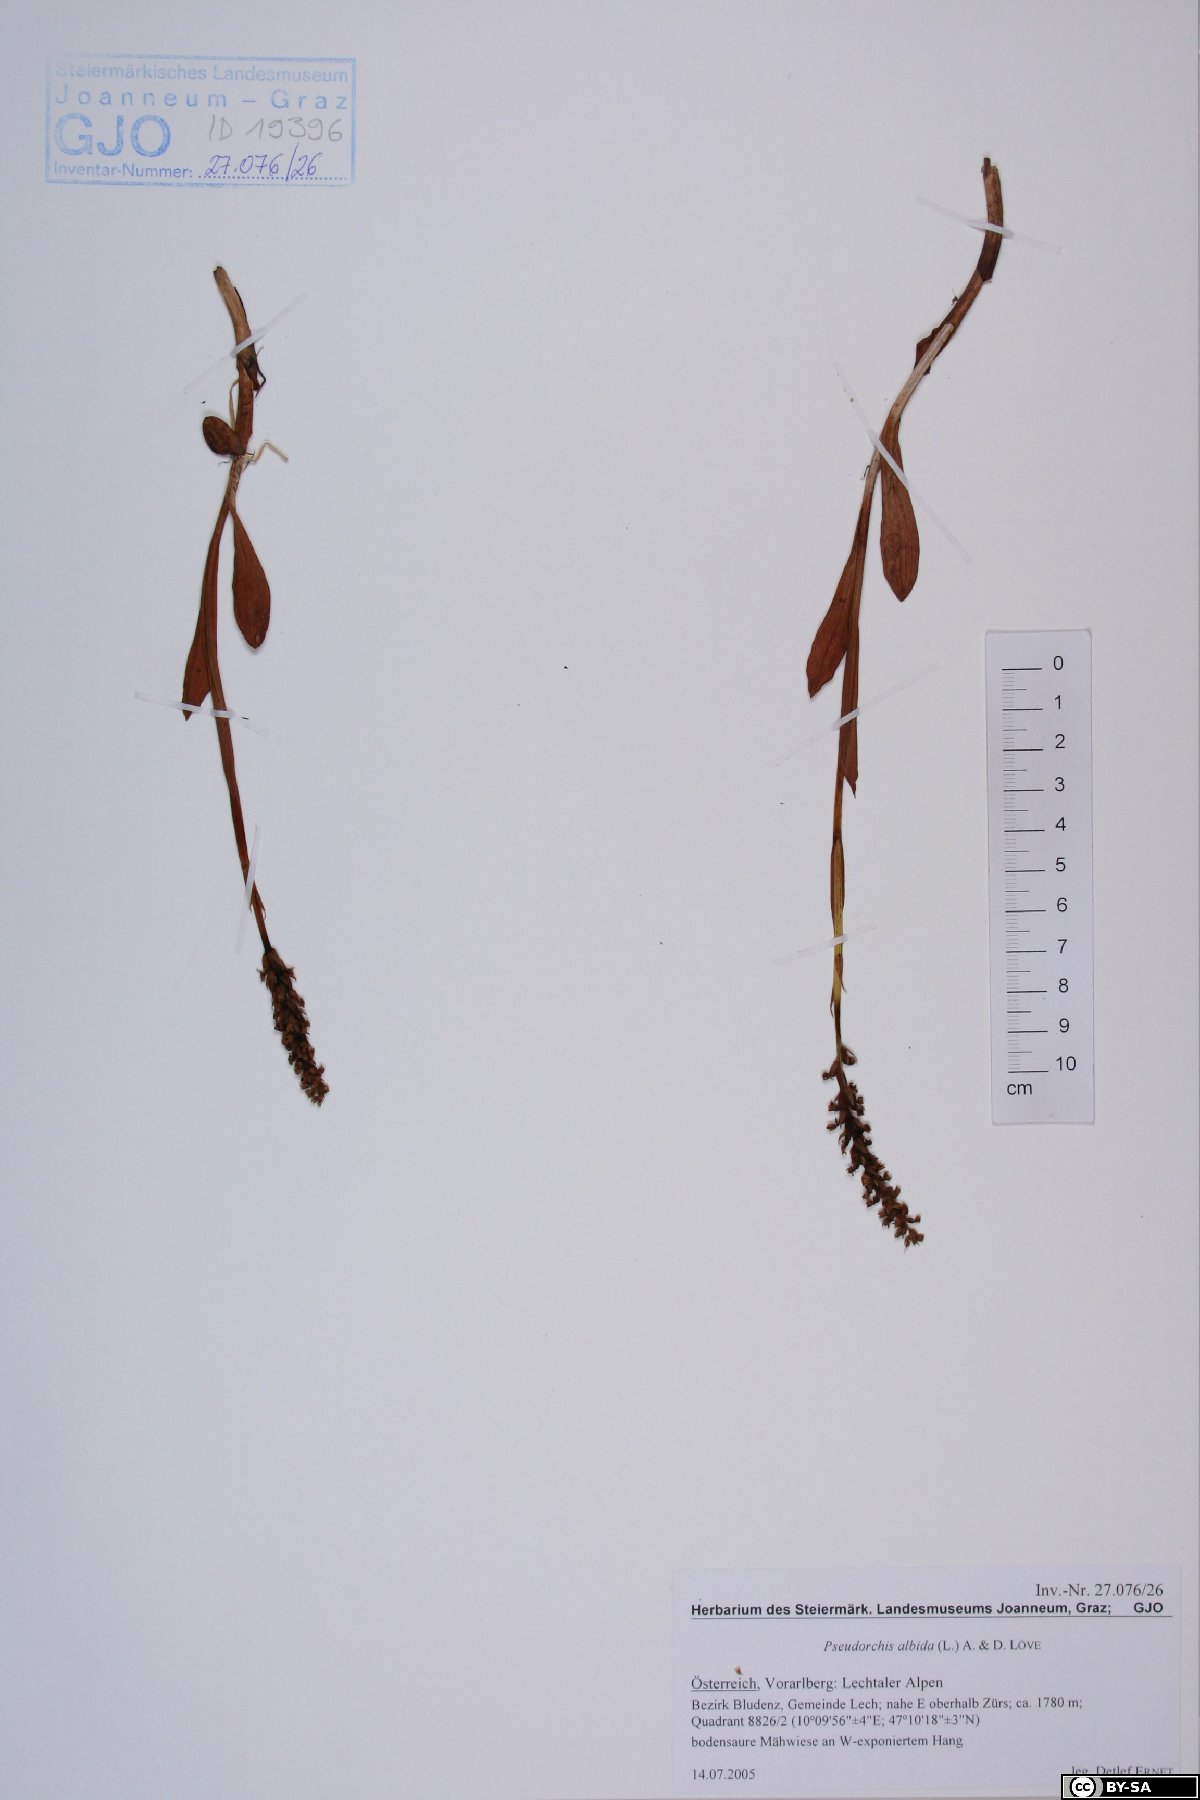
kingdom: Plantae
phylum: Tracheophyta
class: Liliopsida
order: Asparagales
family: Orchidaceae
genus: Pseudorchis
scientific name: Pseudorchis albida
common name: Small-white orchid
